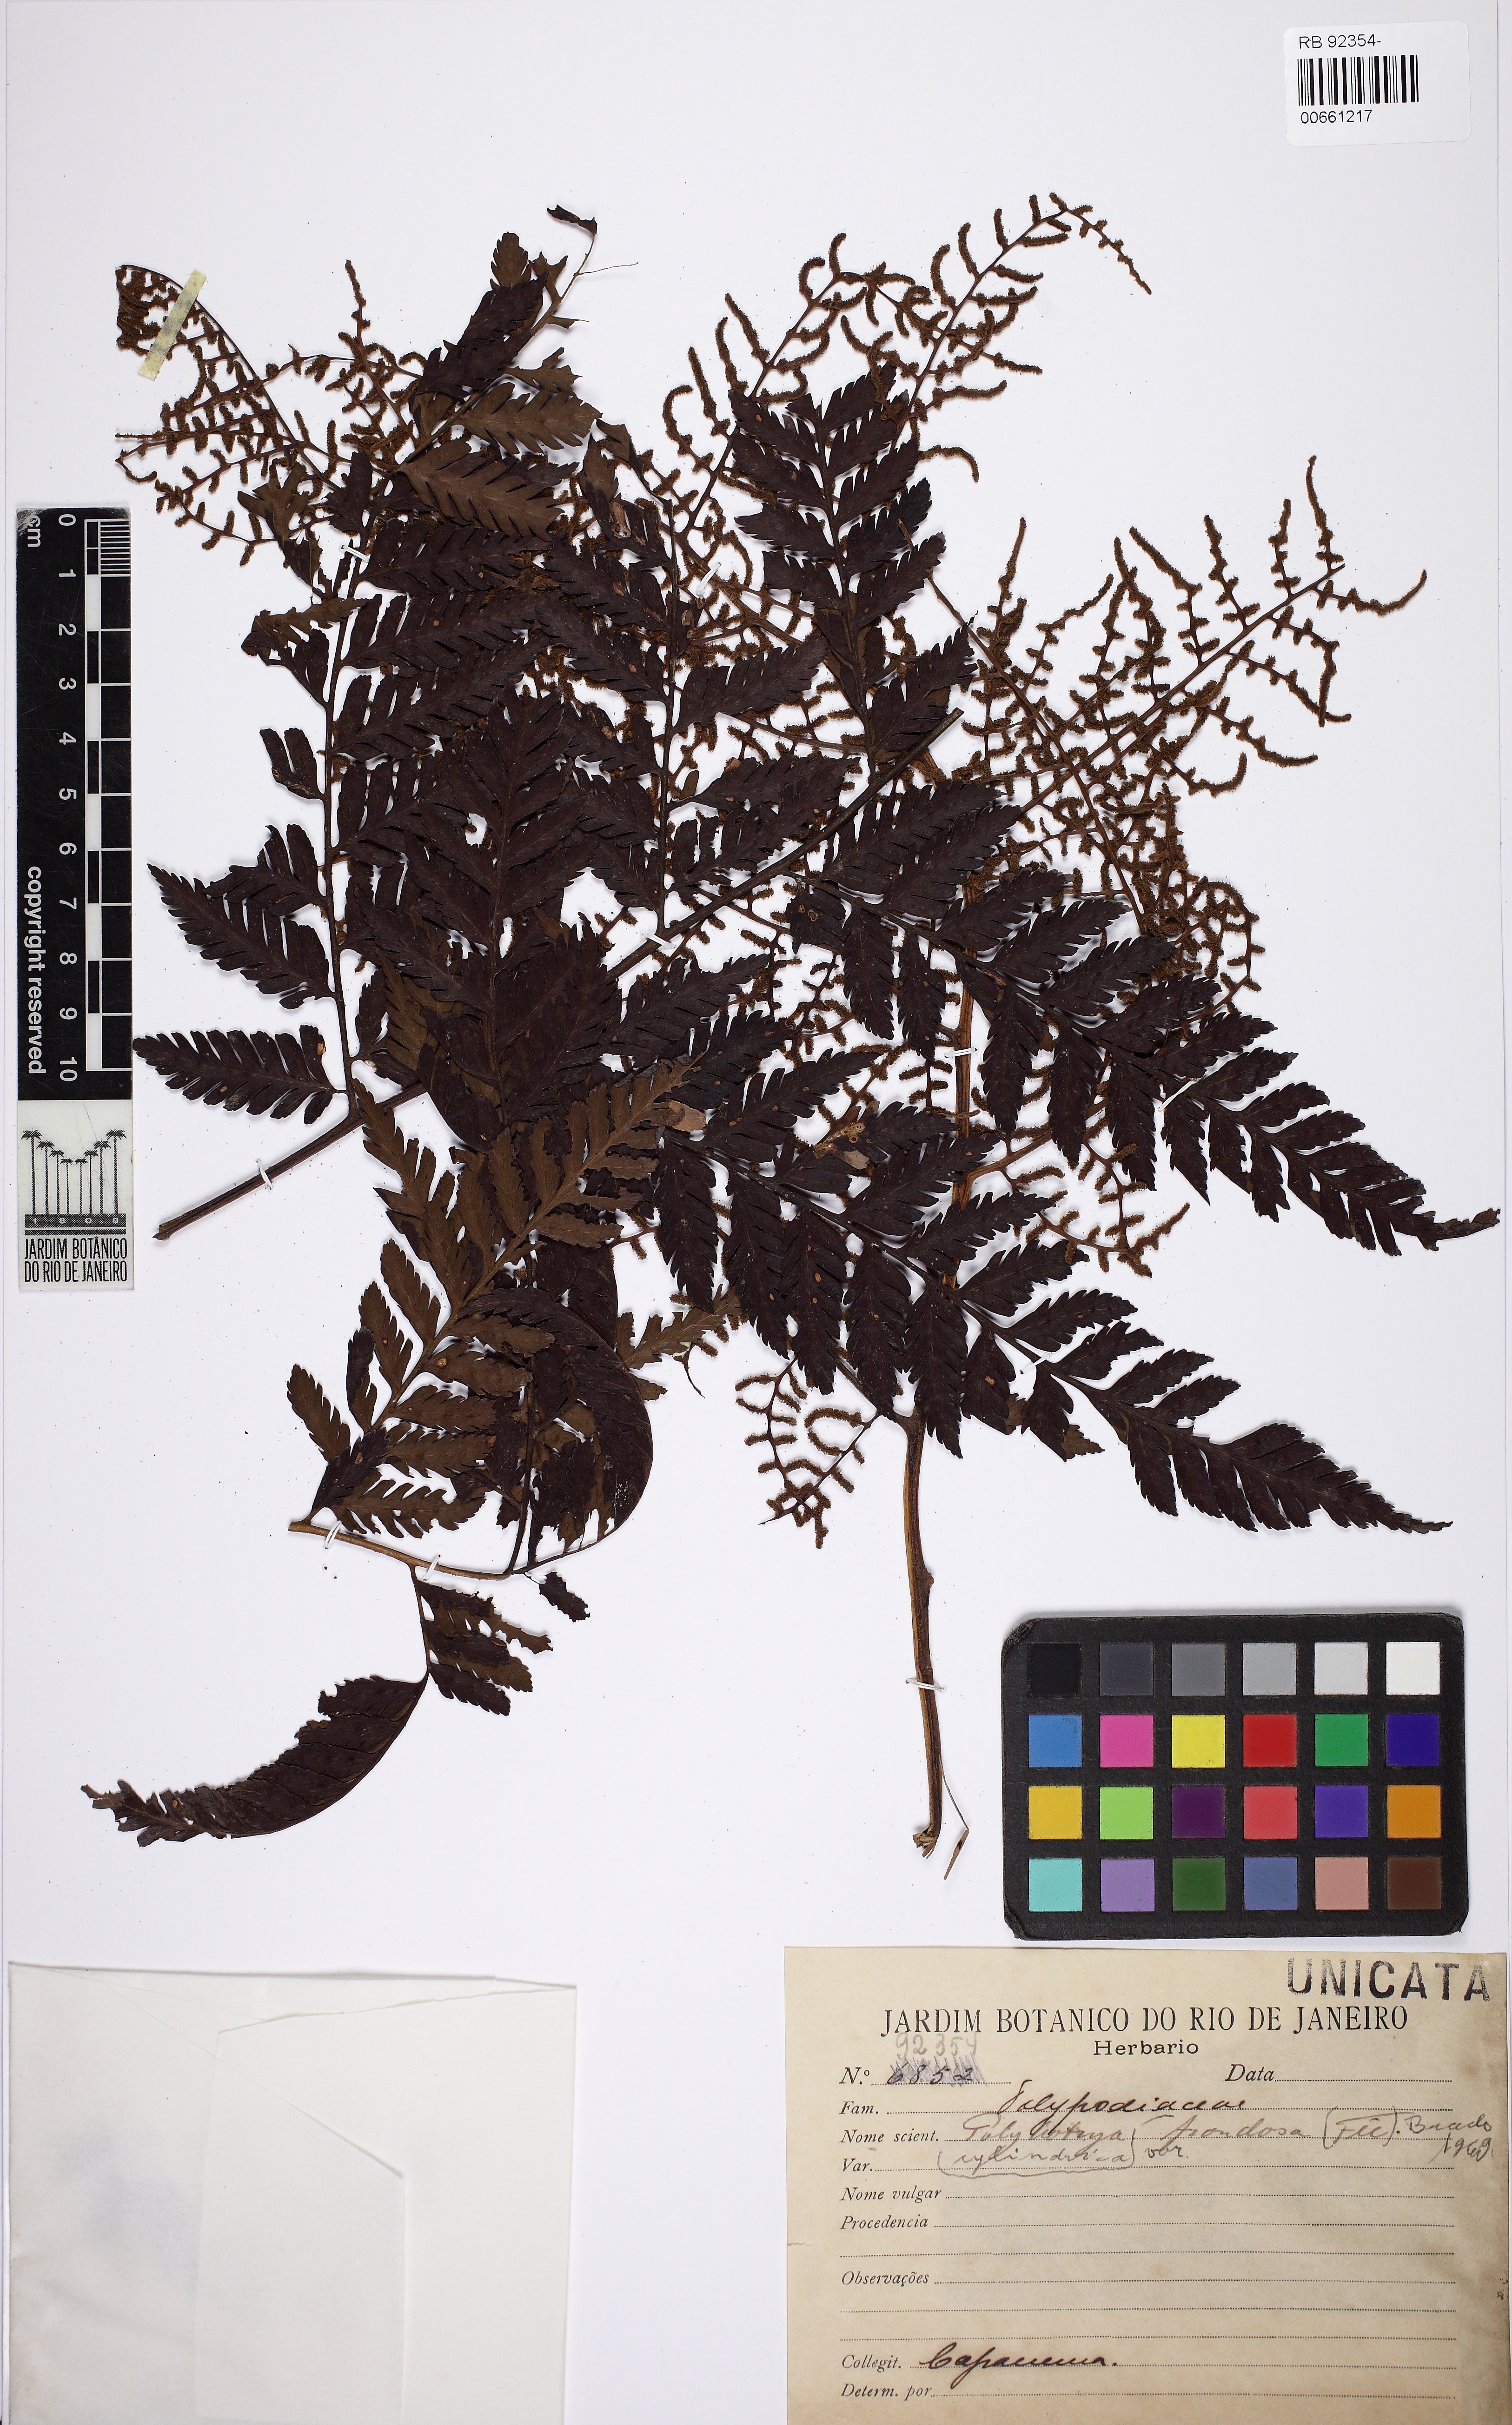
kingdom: Plantae
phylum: Tracheophyta
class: Polypodiopsida
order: Polypodiales
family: Dryopteridaceae
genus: Polybotrya
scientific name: Polybotrya cylindrica
